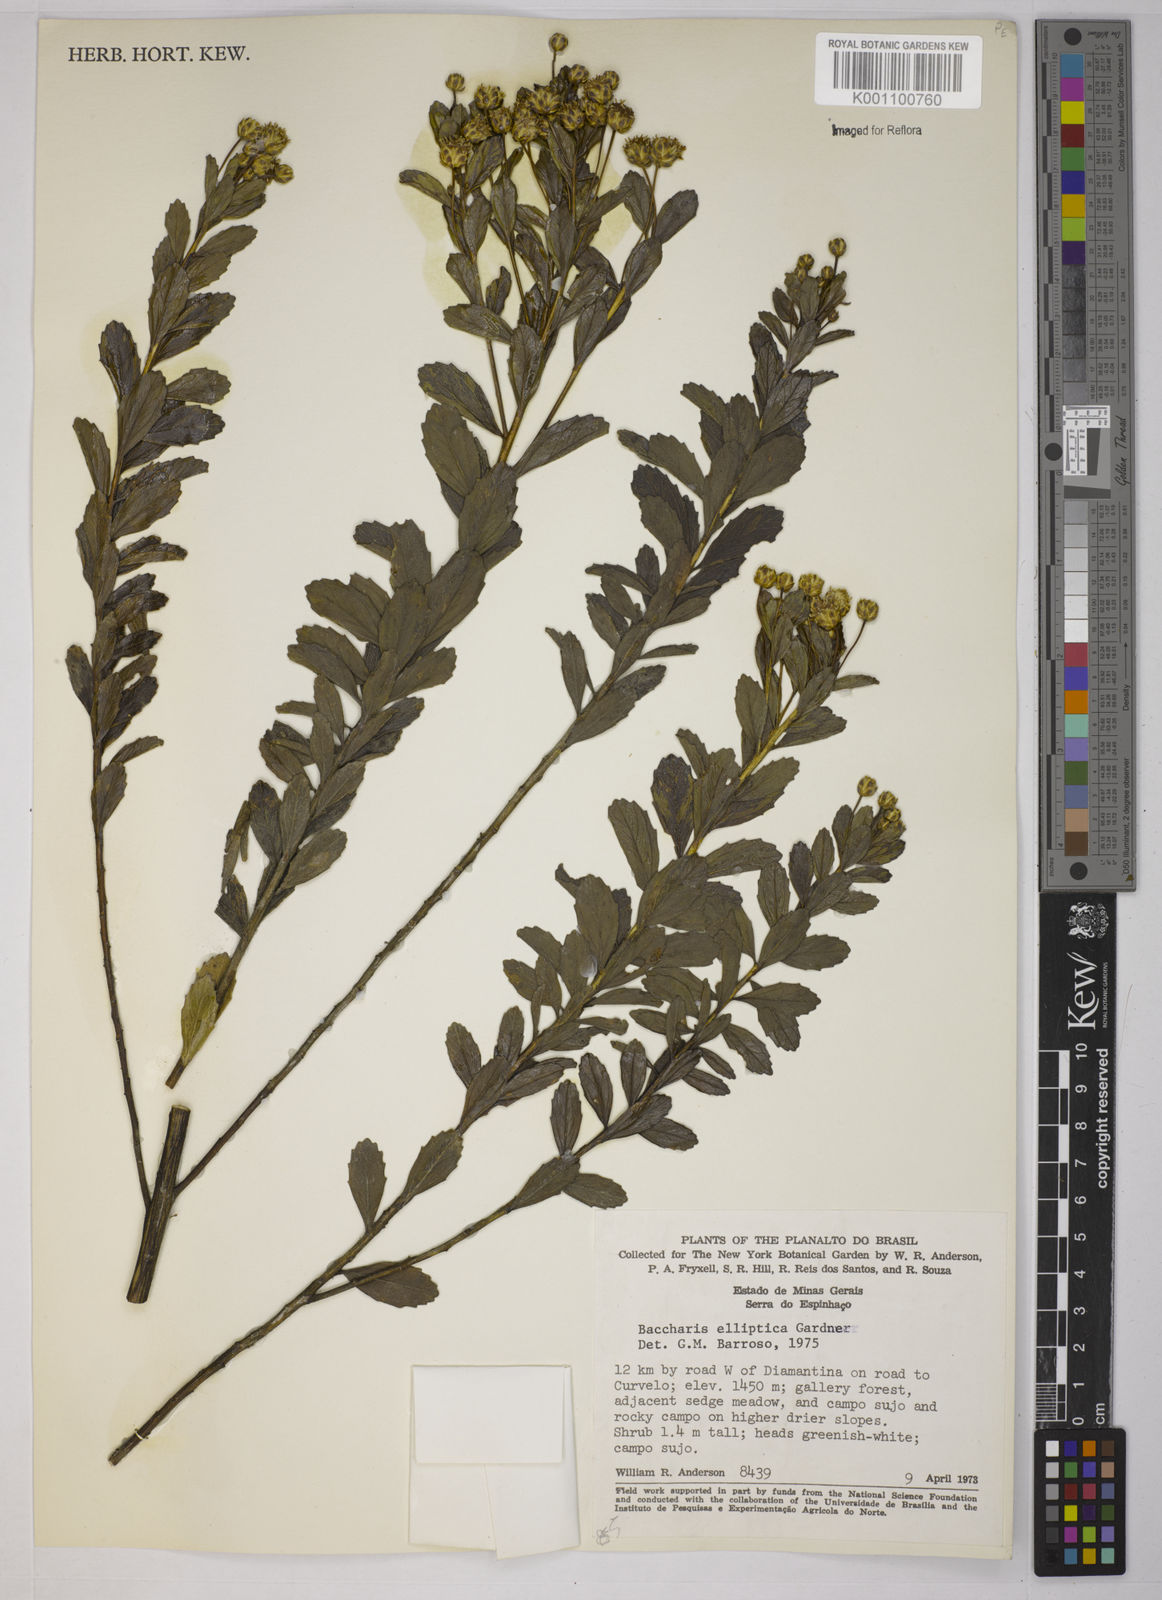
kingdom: Plantae
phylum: Tracheophyta
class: Magnoliopsida
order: Asterales
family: Asteraceae
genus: Baccharis
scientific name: Baccharis elliptica
